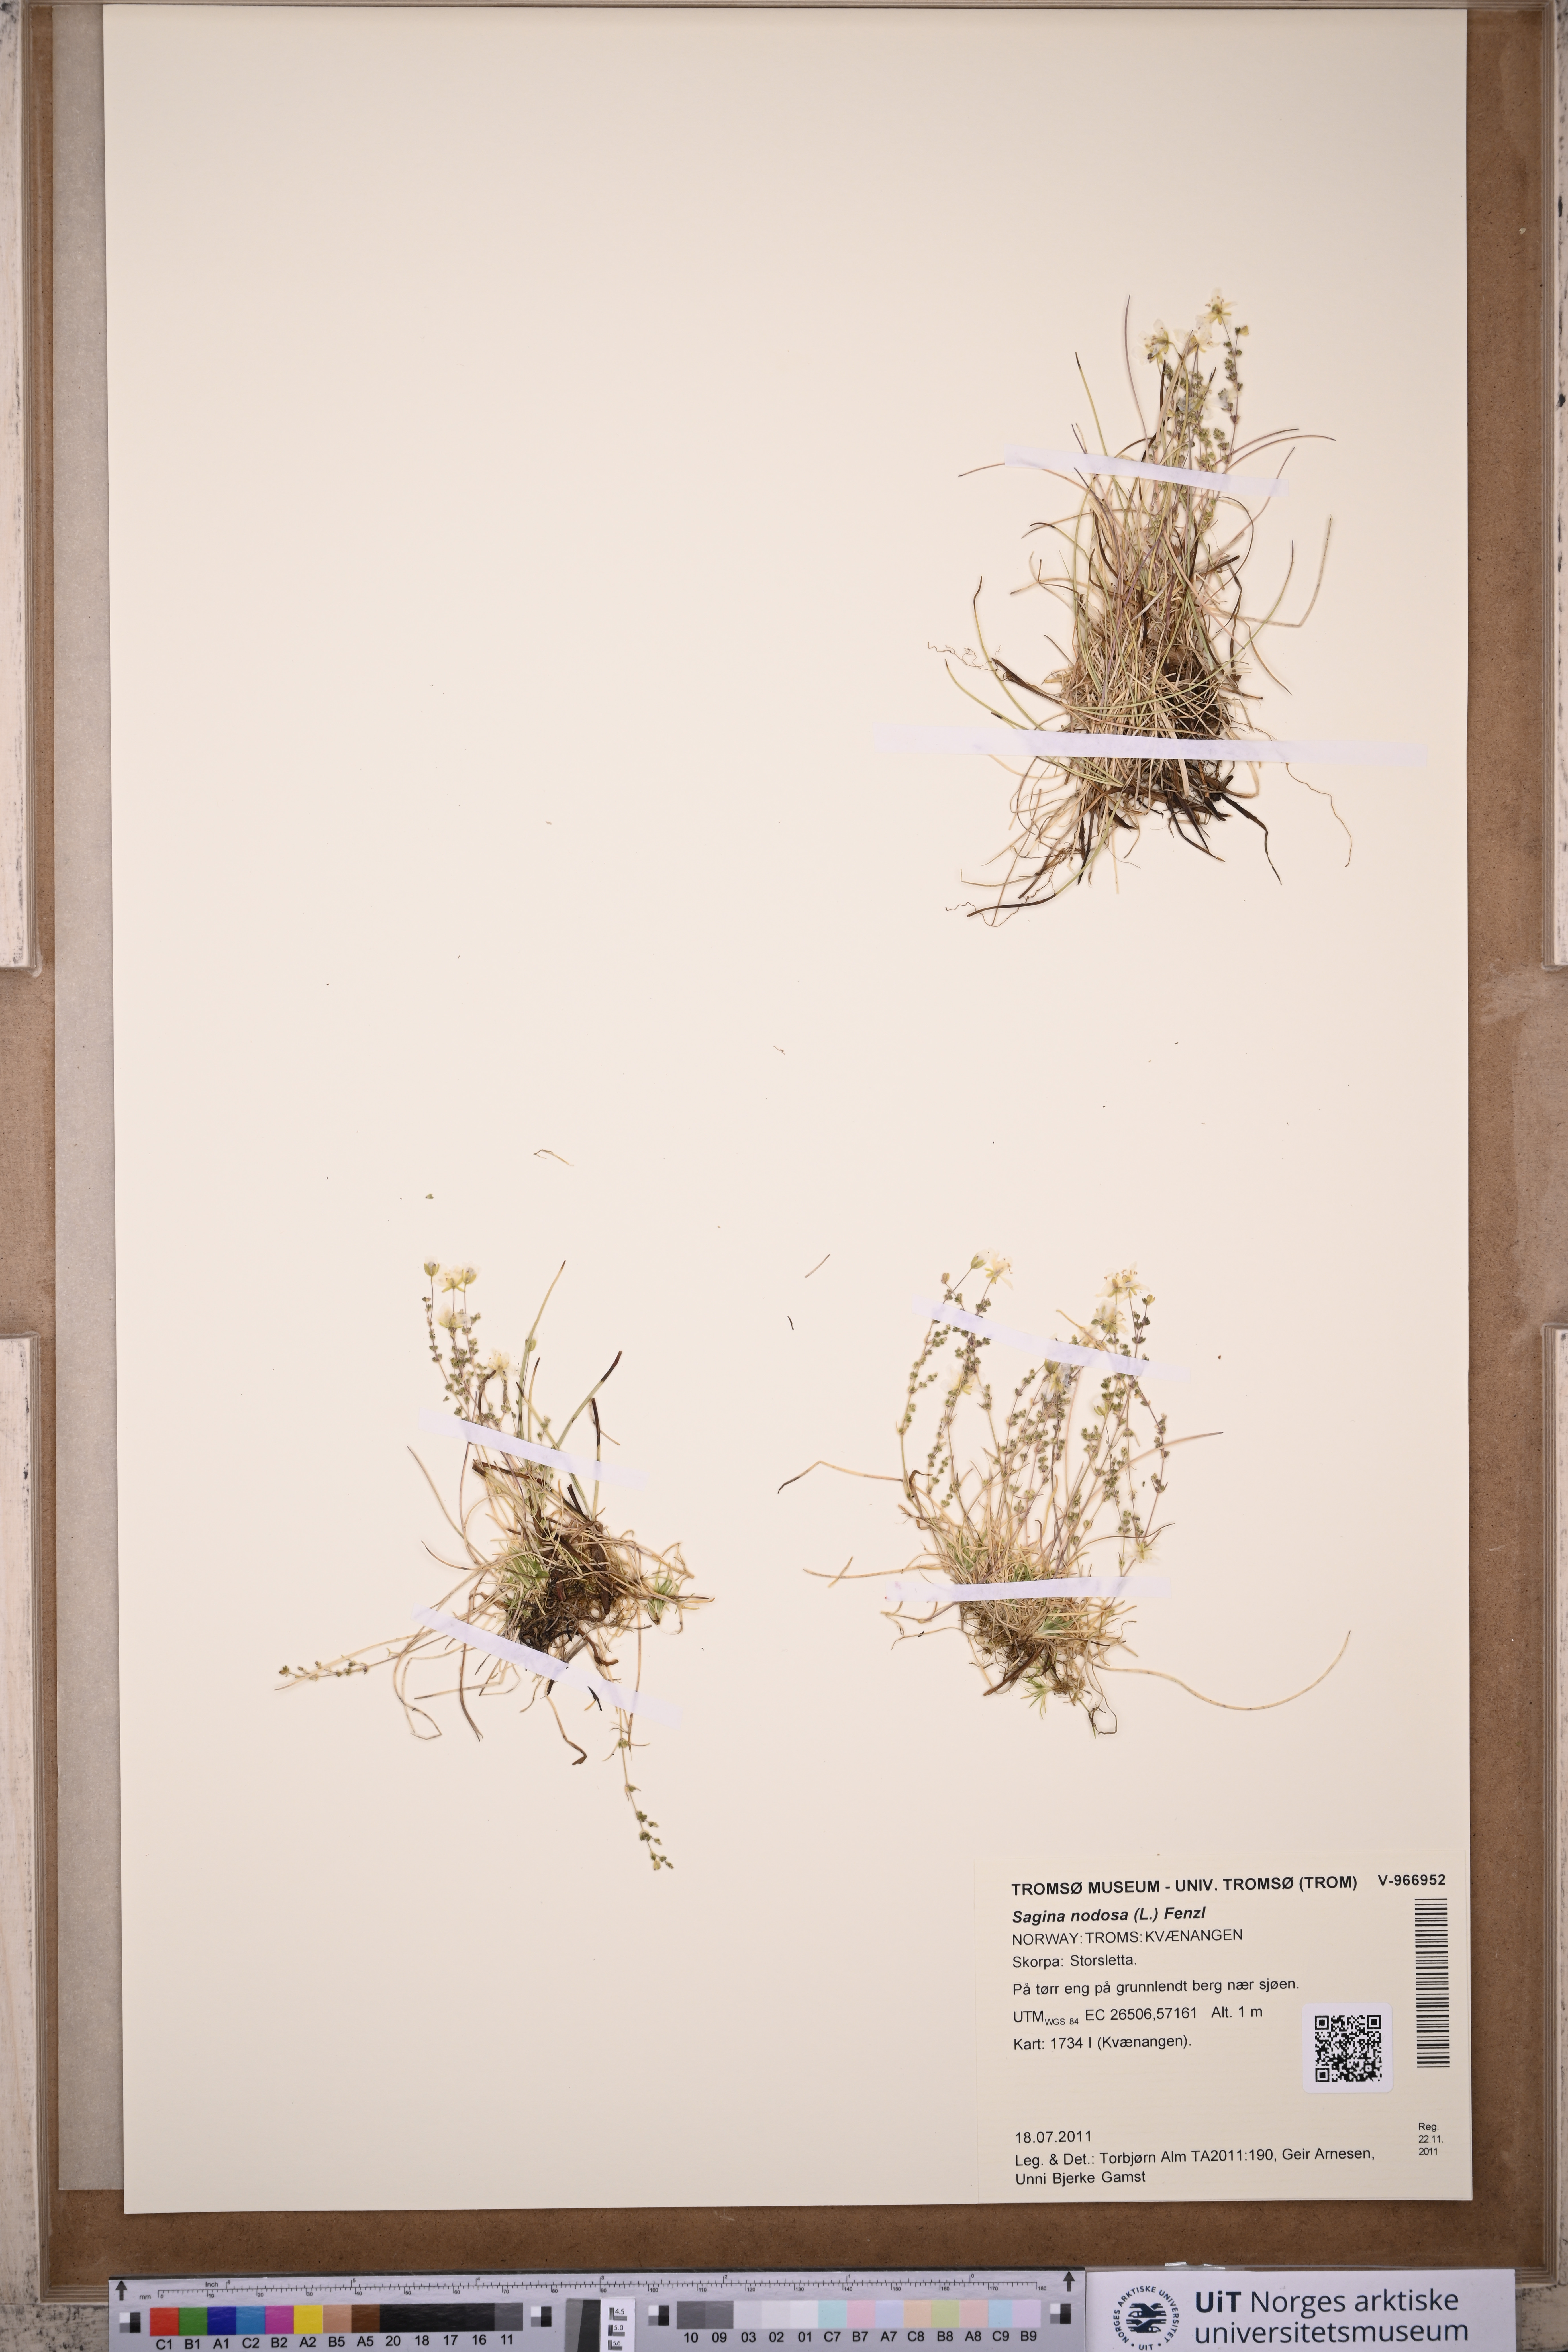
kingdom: Plantae
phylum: Tracheophyta
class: Magnoliopsida
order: Caryophyllales
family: Caryophyllaceae
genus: Sagina
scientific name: Sagina nodosa
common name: Knotted pearlwort
